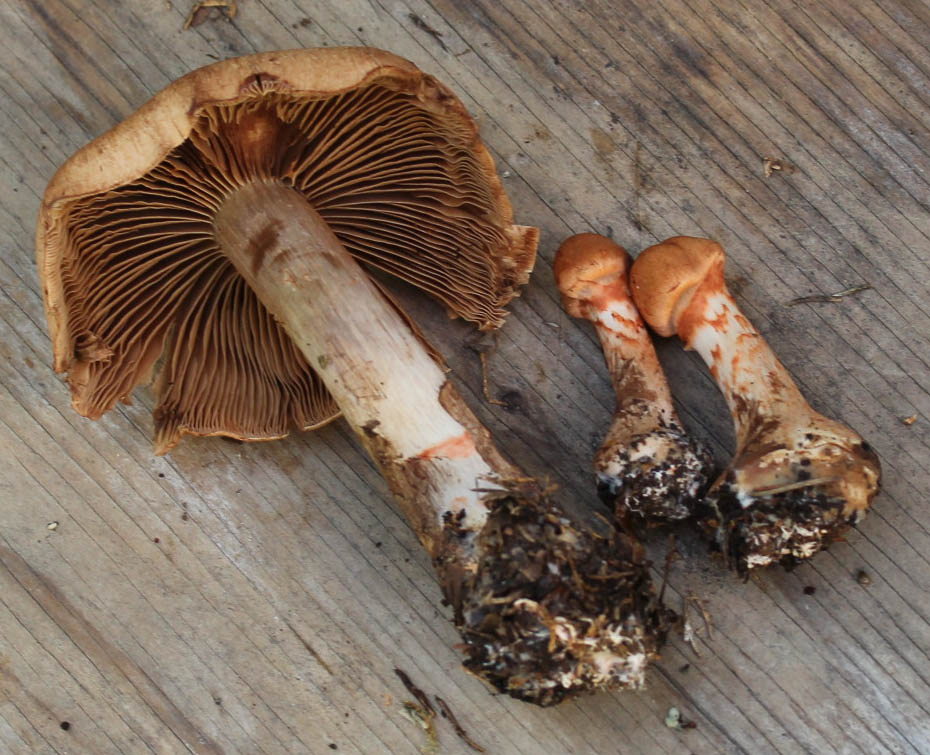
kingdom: Fungi
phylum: Basidiomycota
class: Agaricomycetes
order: Agaricales
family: Cortinariaceae
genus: Cortinarius
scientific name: Cortinarius armillatus
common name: cinnoberbæltet slørhat
